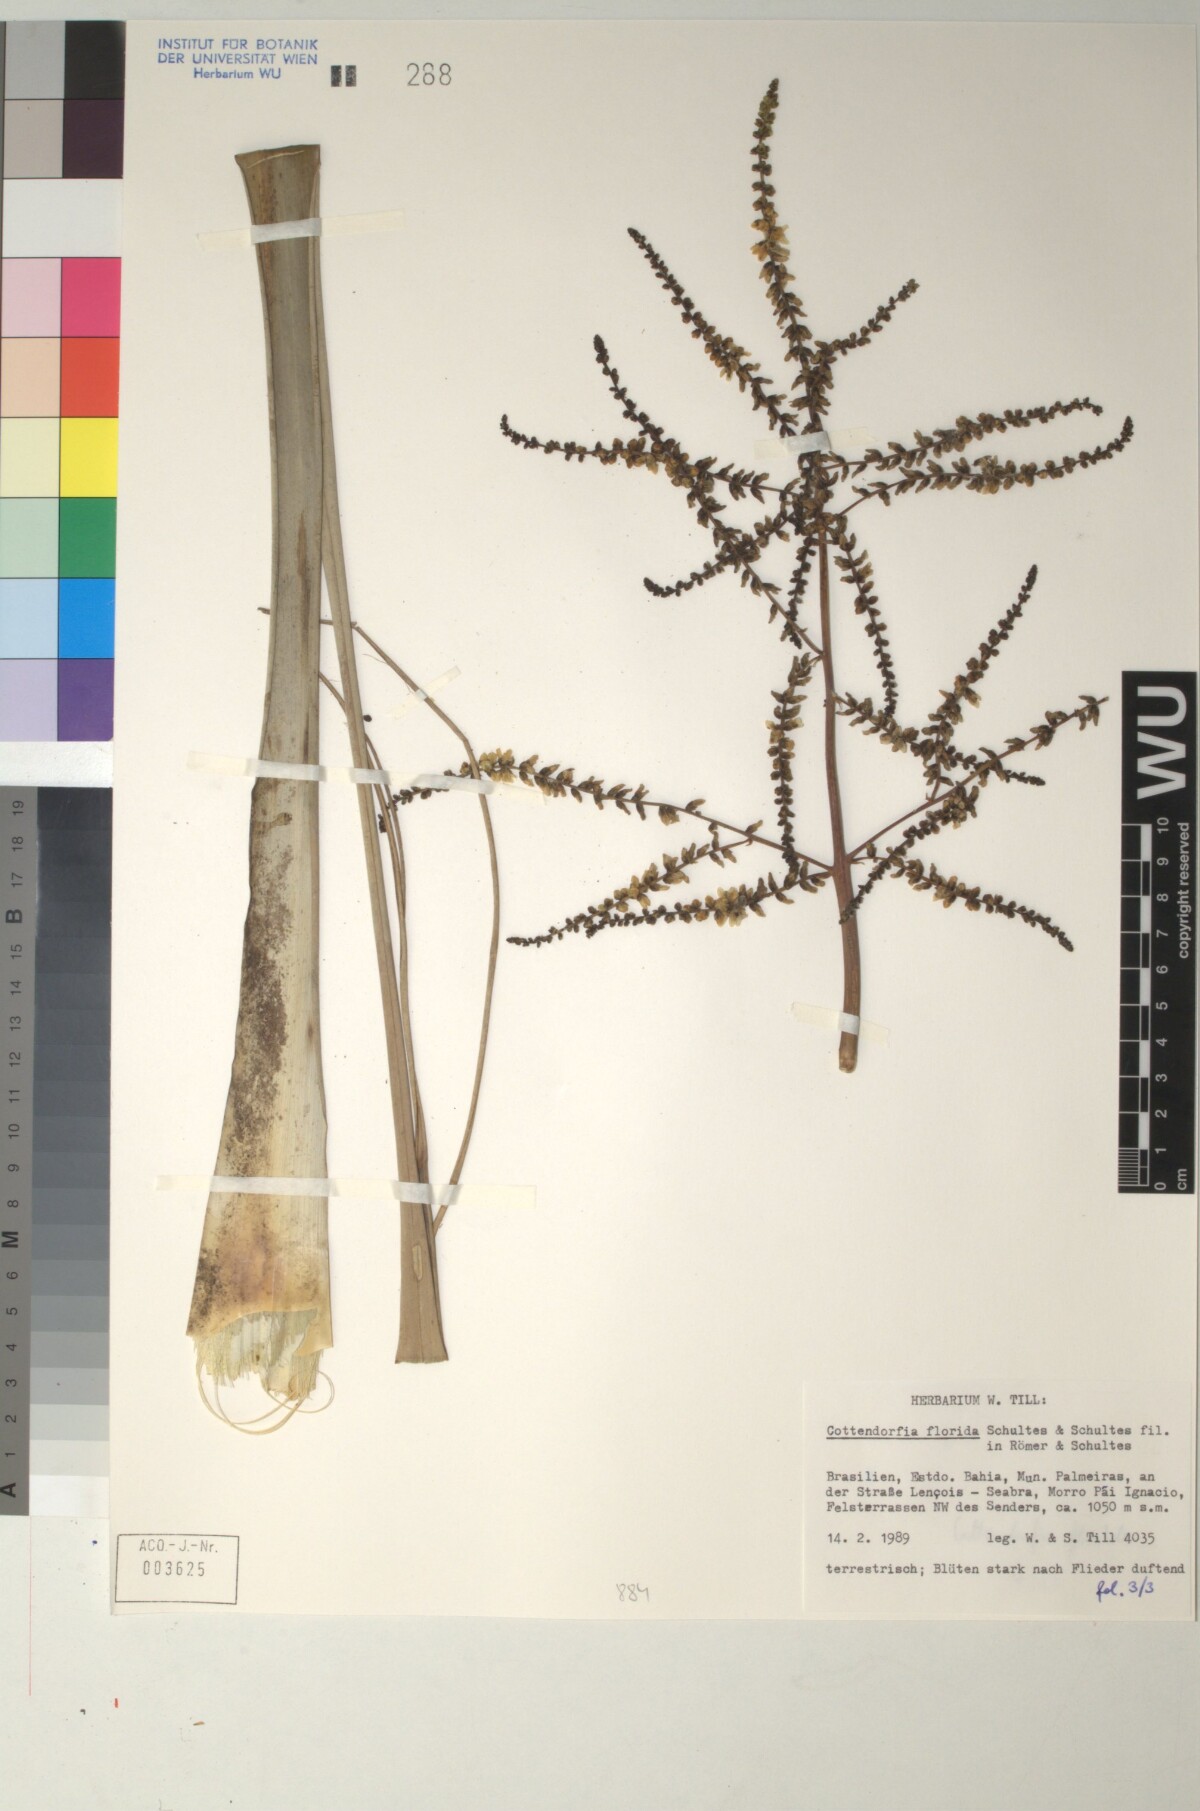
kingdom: Plantae
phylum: Tracheophyta
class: Liliopsida
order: Poales
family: Bromeliaceae
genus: Cottendorfia
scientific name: Cottendorfia florida
